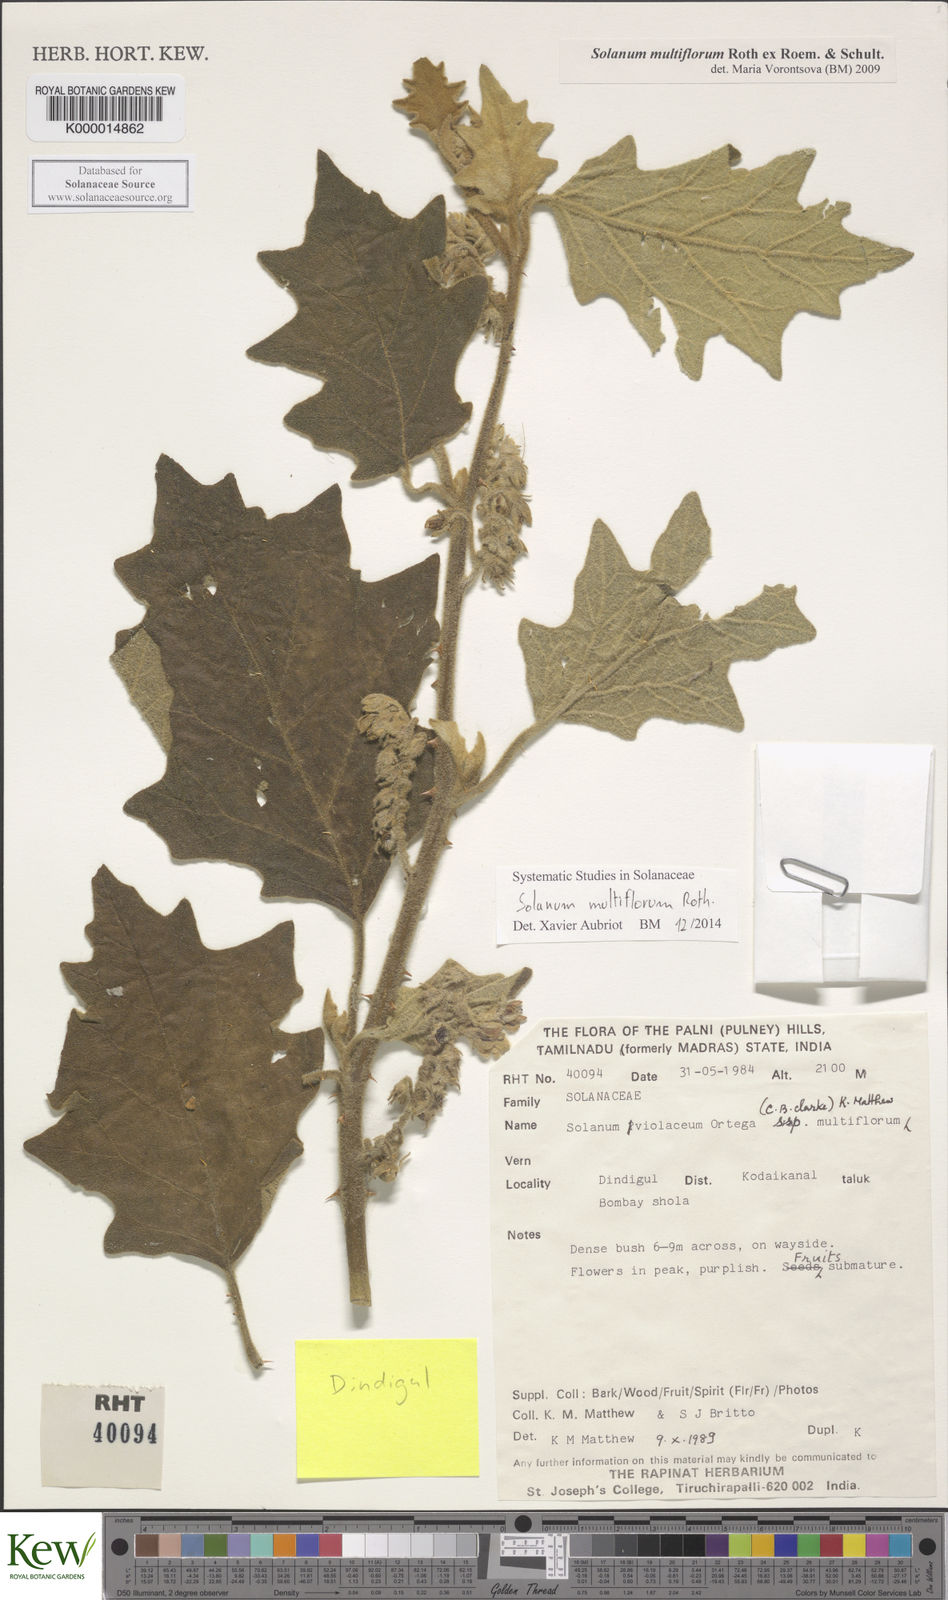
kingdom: Plantae
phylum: Tracheophyta
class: Magnoliopsida
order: Solanales
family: Solanaceae
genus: Solanum
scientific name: Solanum multiflorum
